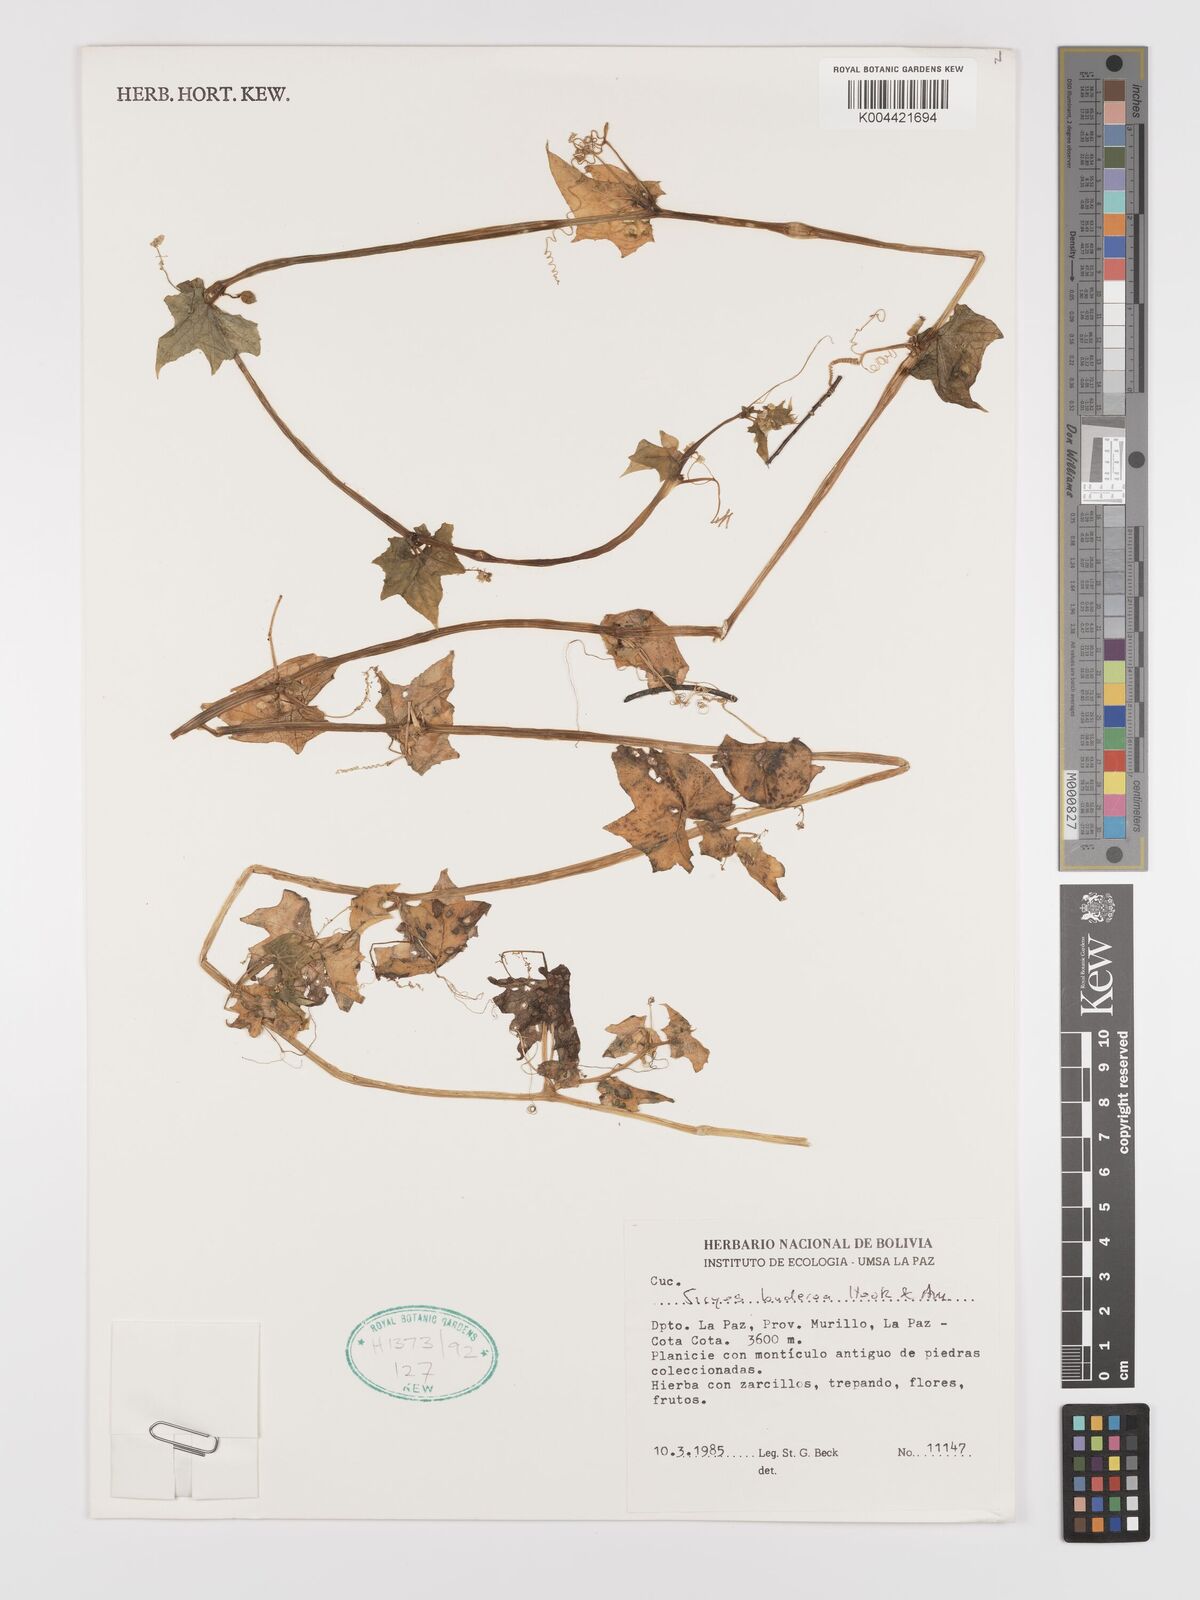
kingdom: Plantae
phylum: Tracheophyta
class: Magnoliopsida
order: Cucurbitales
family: Cucurbitaceae
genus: Sicyos
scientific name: Sicyos baderoa
